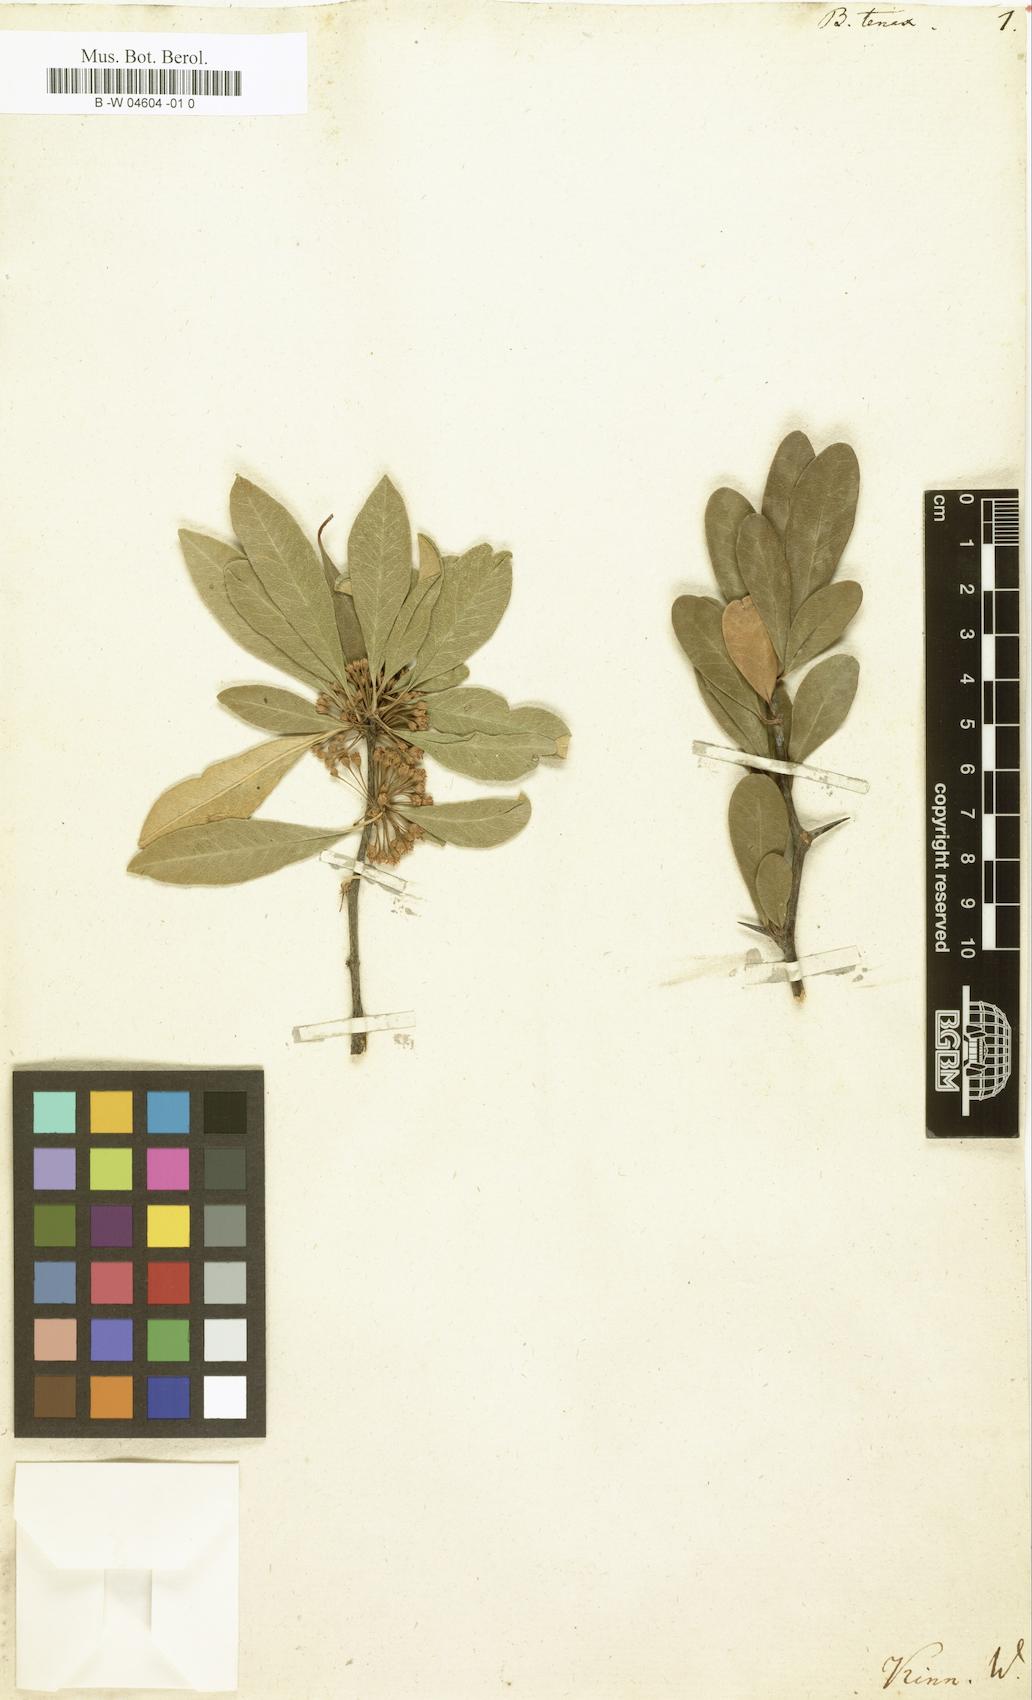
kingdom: Plantae
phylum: Tracheophyta
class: Magnoliopsida
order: Ericales
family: Sapotaceae
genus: Sideroxylon
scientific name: Sideroxylon tenax
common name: Tough-buckthorn
